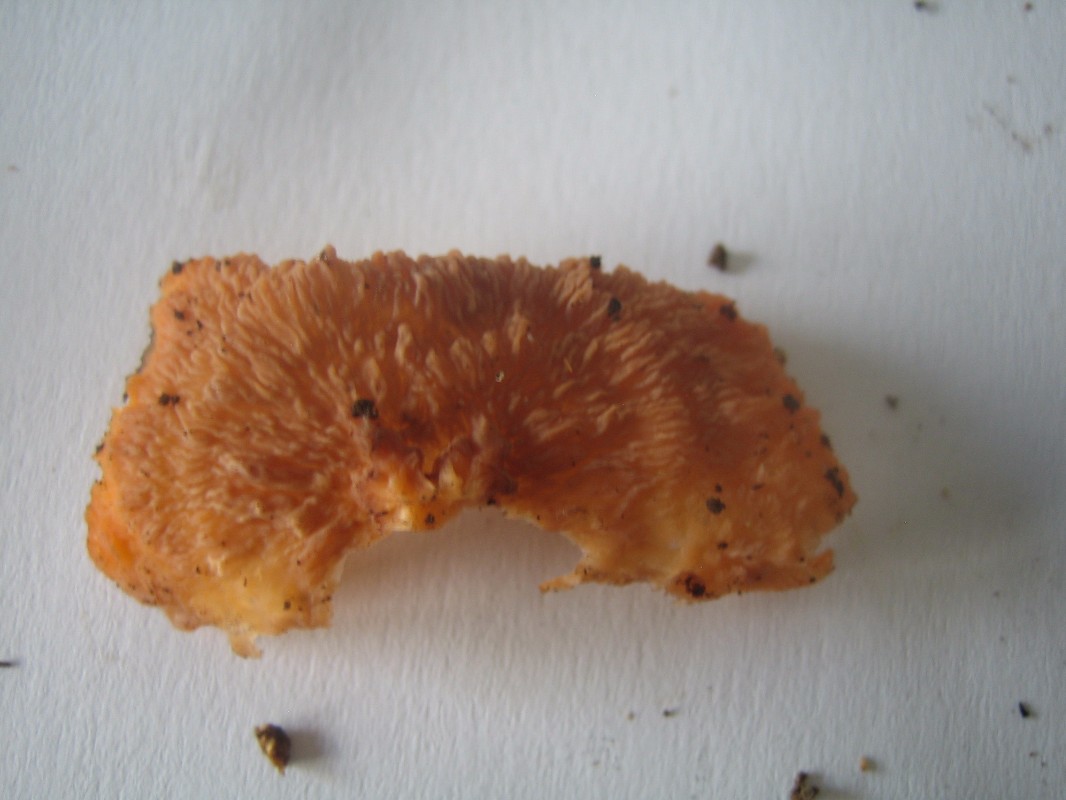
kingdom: Fungi
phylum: Basidiomycota
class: Agaricomycetes
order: Polyporales
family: Meruliaceae
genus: Phlebia
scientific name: Phlebia radiata
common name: stråle-åresvamp
